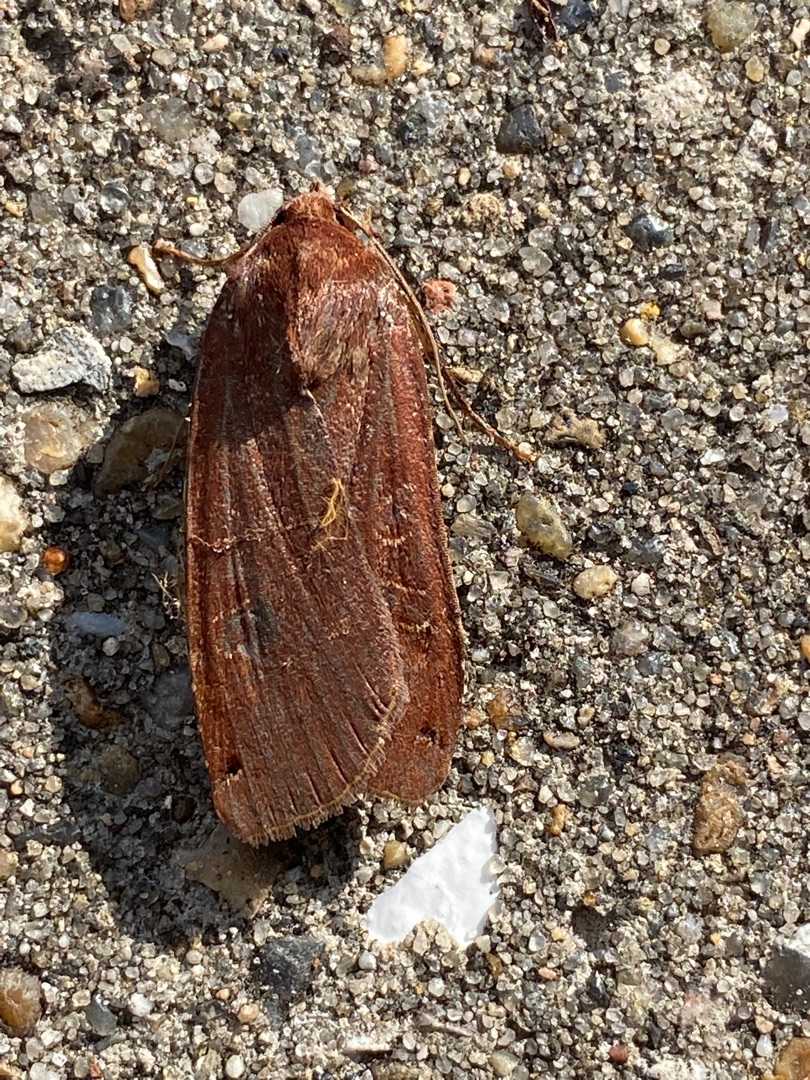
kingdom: Animalia
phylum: Arthropoda
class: Insecta
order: Lepidoptera
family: Noctuidae
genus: Noctua
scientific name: Noctua pronuba
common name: Stor smutugle
